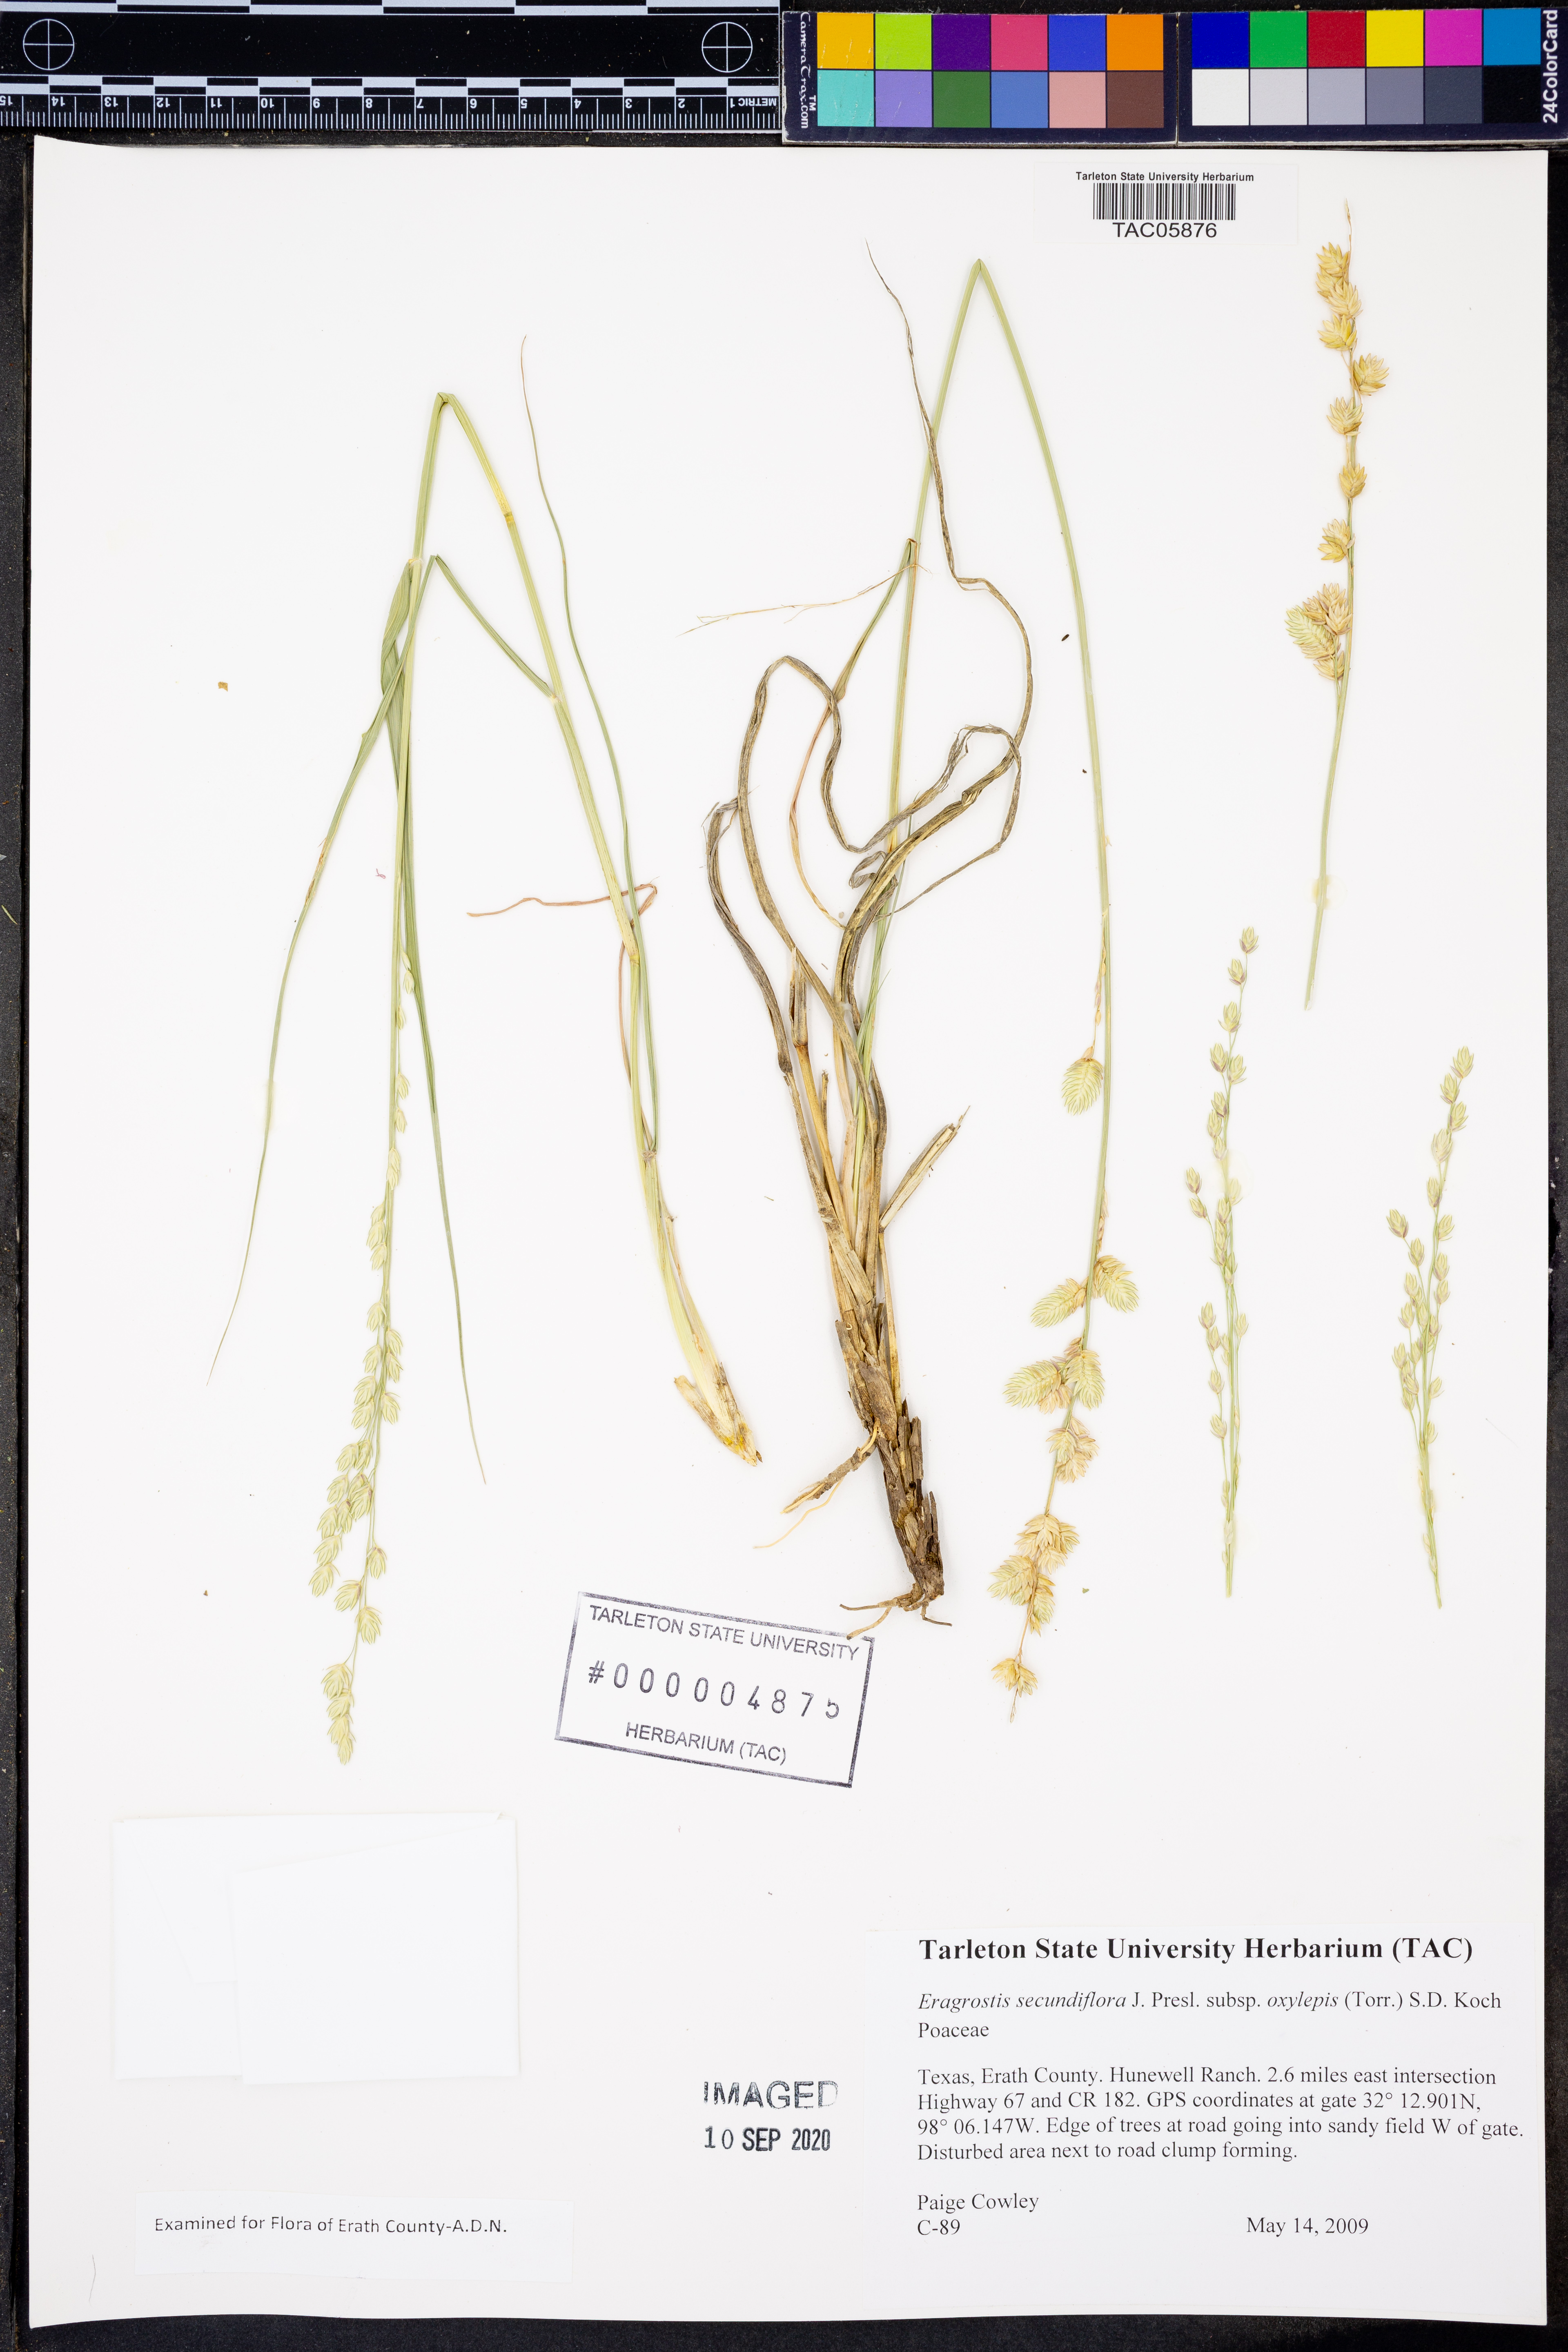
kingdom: Plantae
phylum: Tracheophyta
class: Liliopsida
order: Poales
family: Poaceae
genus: Eragrostis
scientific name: Eragrostis secundiflora
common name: Red love grass
